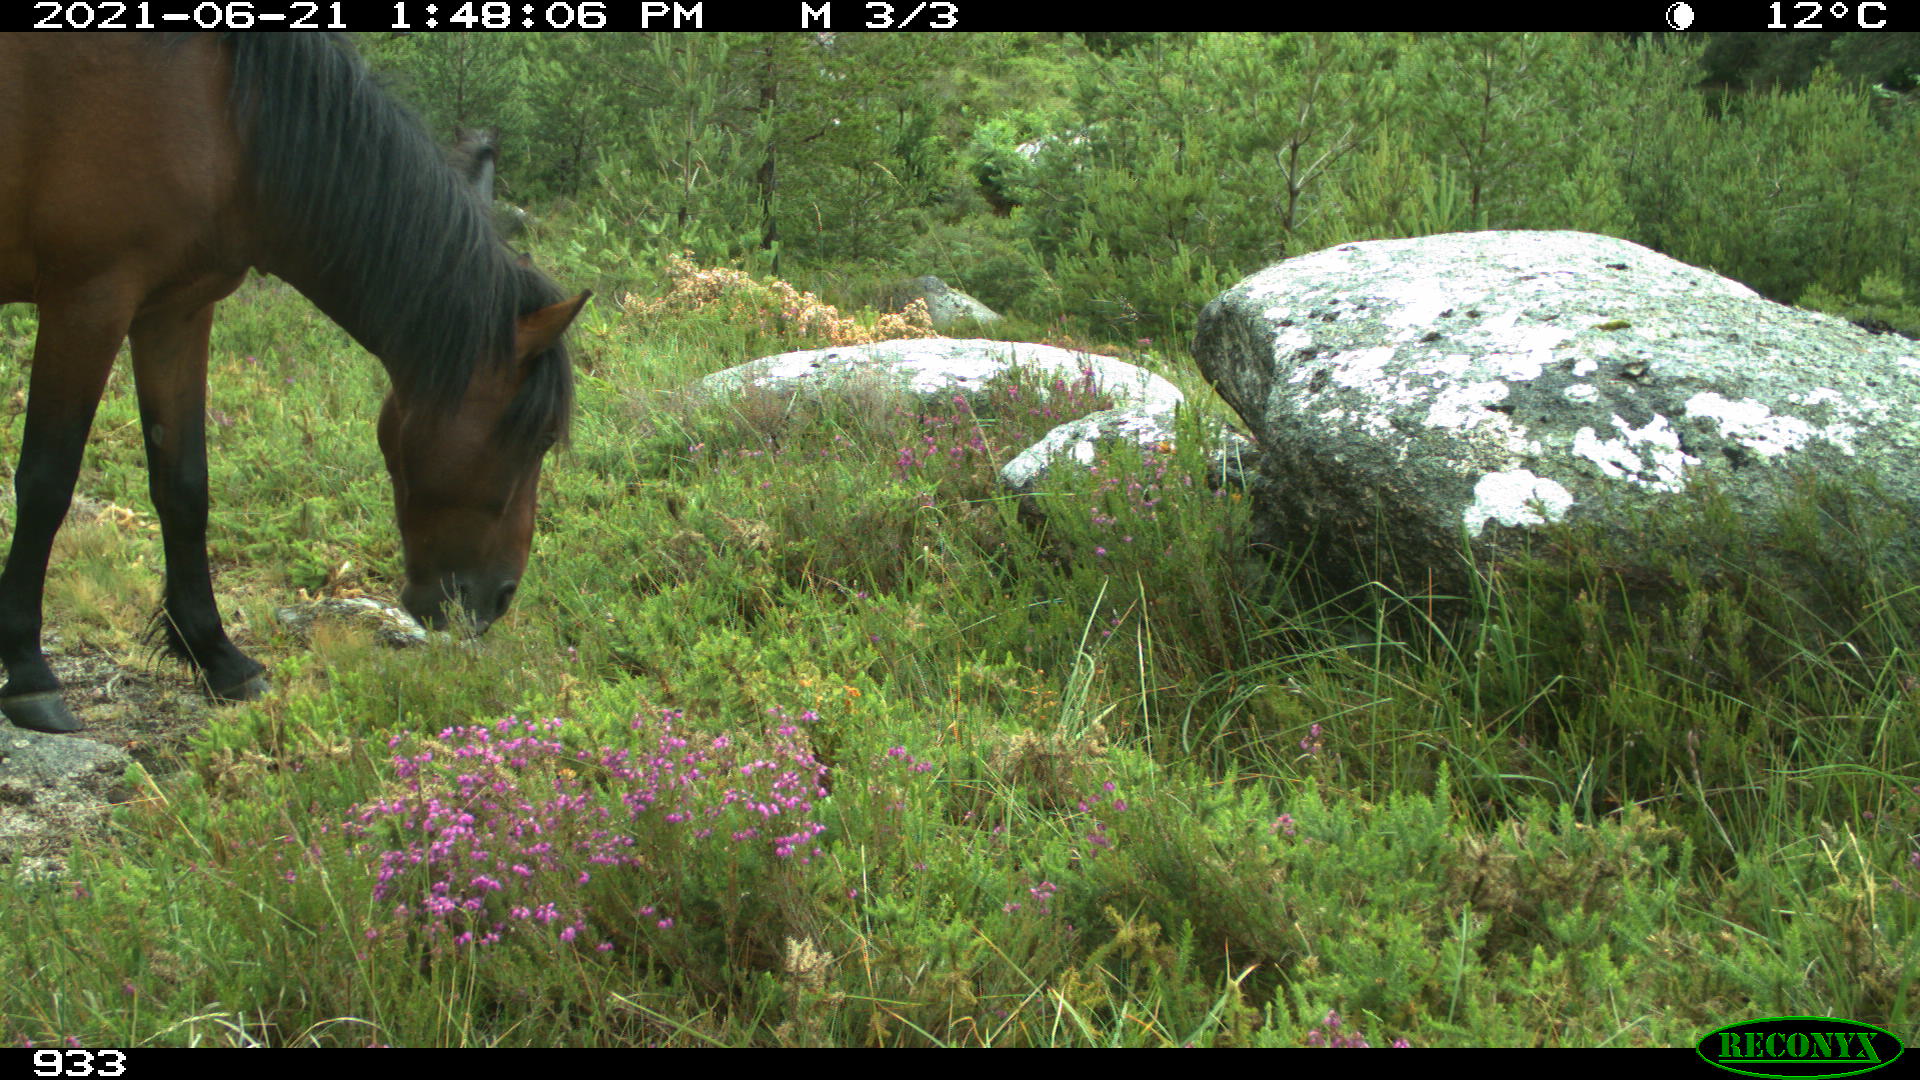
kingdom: Animalia
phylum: Chordata
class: Mammalia
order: Perissodactyla
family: Equidae
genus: Equus
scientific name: Equus caballus
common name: Horse
